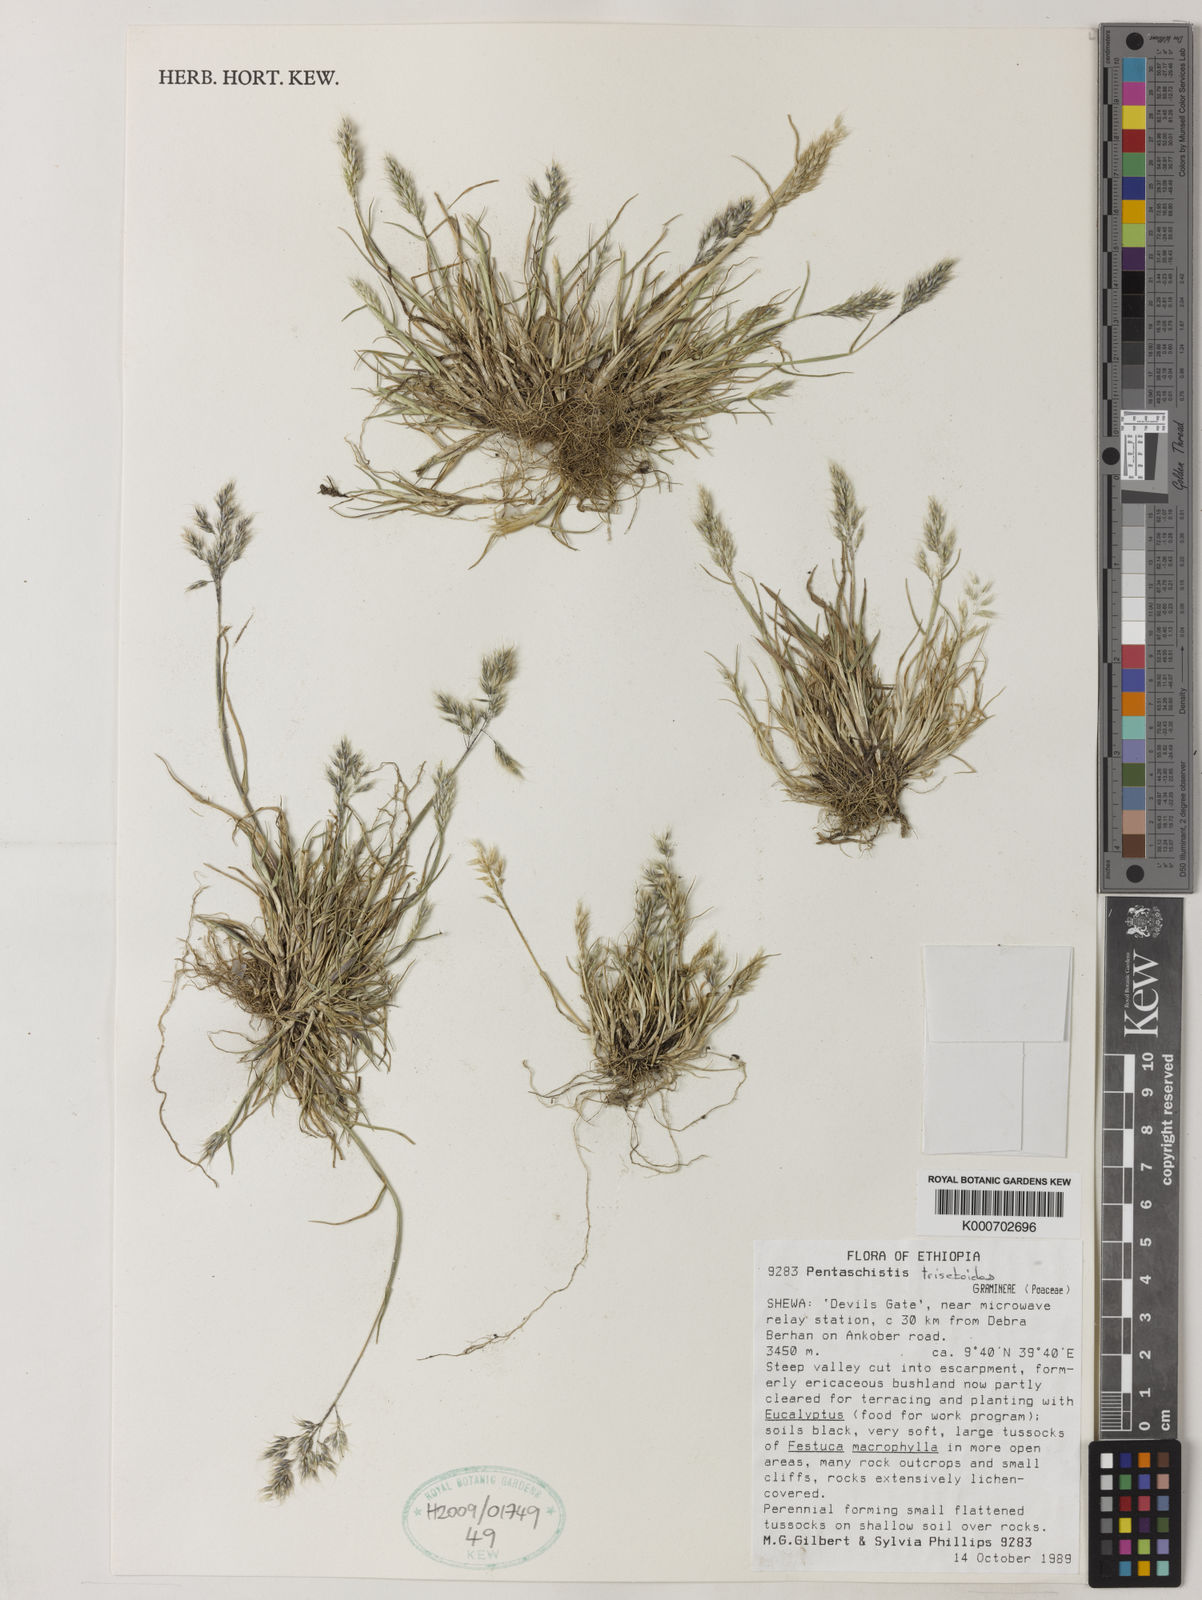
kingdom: Plantae
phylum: Tracheophyta
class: Liliopsida
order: Poales
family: Poaceae
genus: Pentaschistis
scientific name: Pentaschistis
